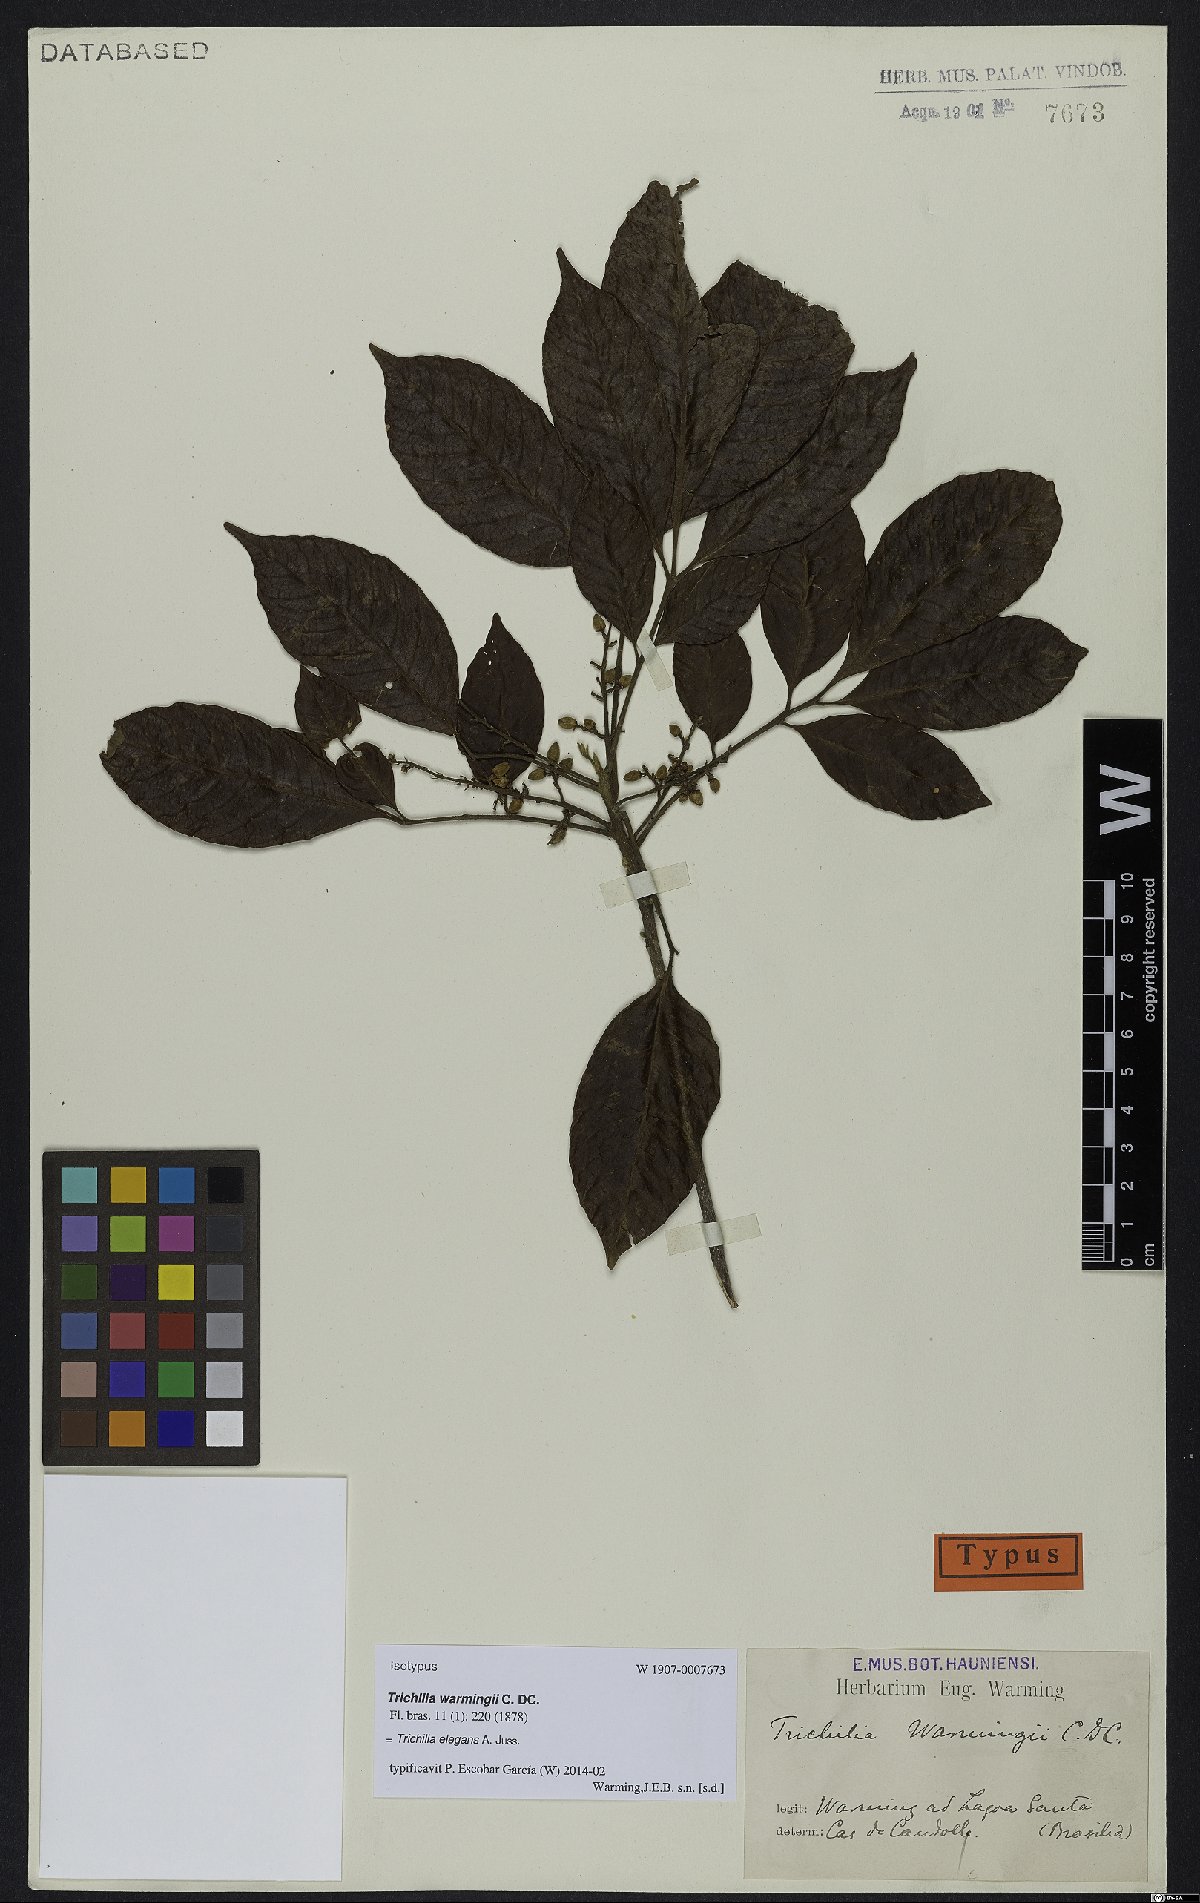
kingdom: Plantae
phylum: Tracheophyta
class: Magnoliopsida
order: Sapindales
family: Meliaceae
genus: Trichilia
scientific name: Trichilia elegans
